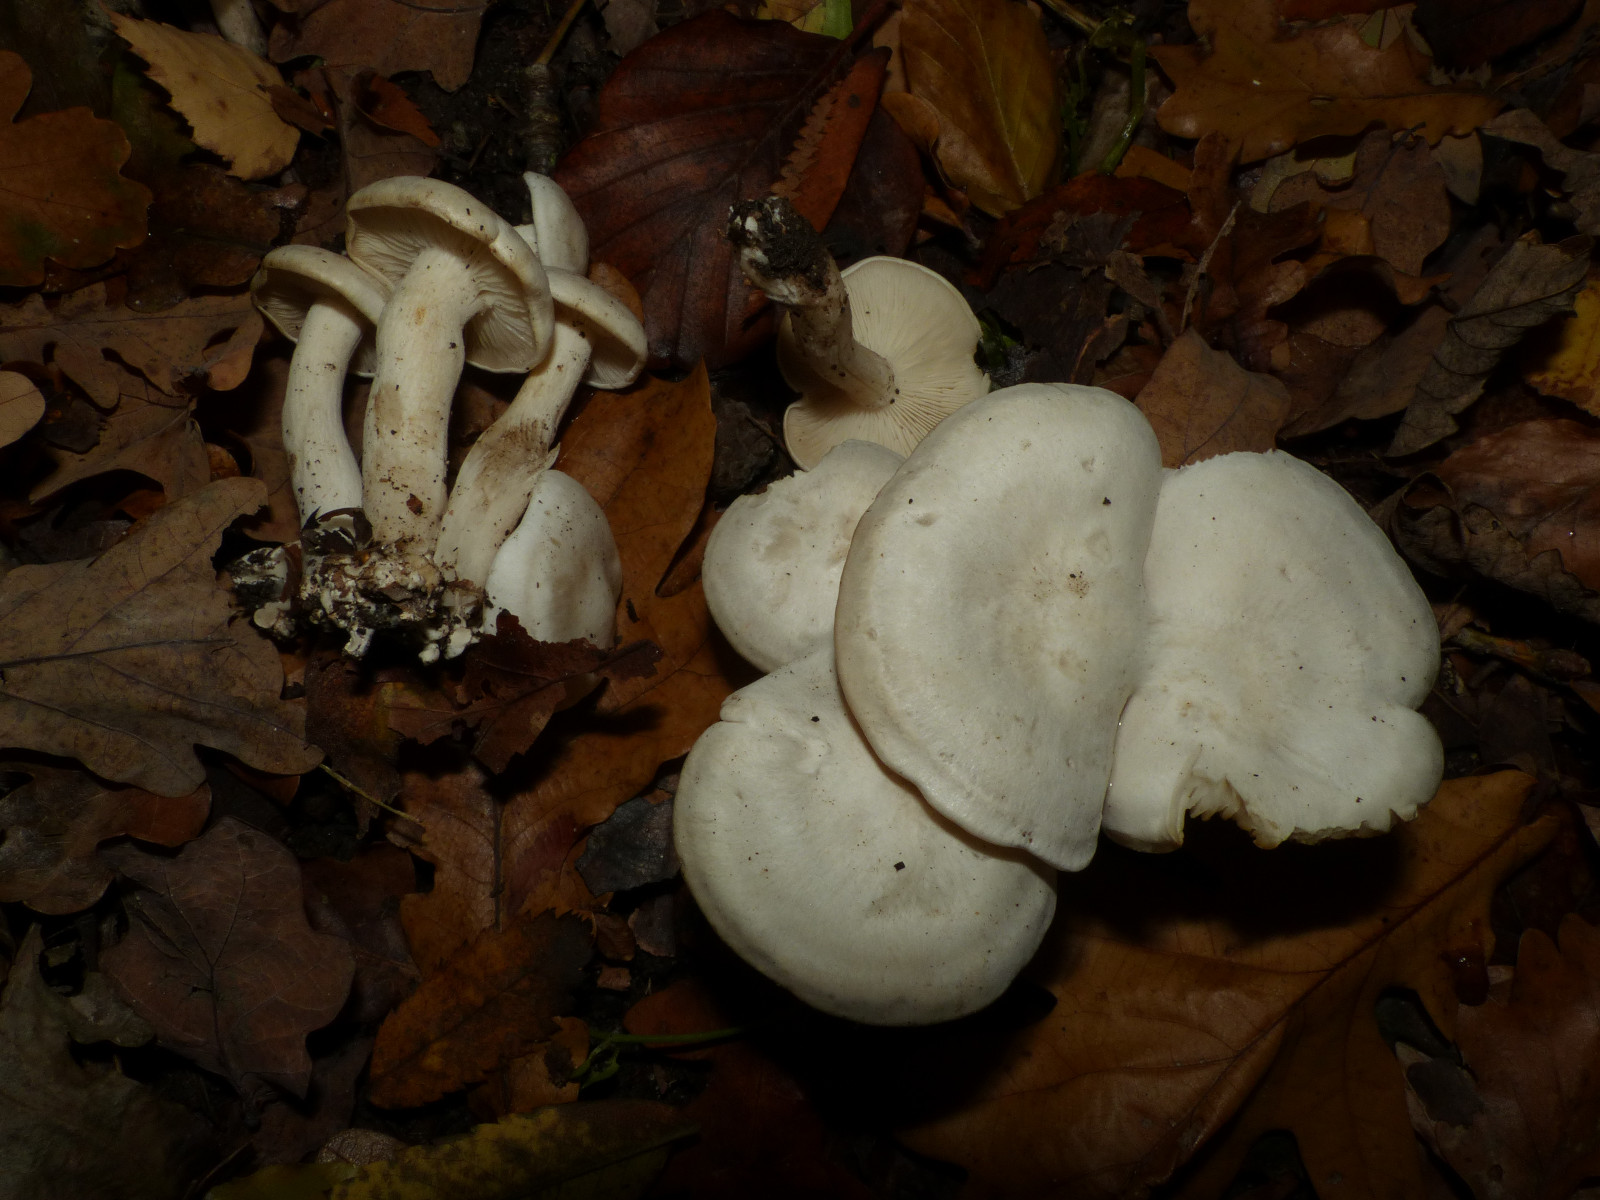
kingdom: Fungi
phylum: Basidiomycota
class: Agaricomycetes
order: Agaricales
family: Tricholomataceae
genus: Leucocybe
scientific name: Leucocybe connata
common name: knippe-tragthat
